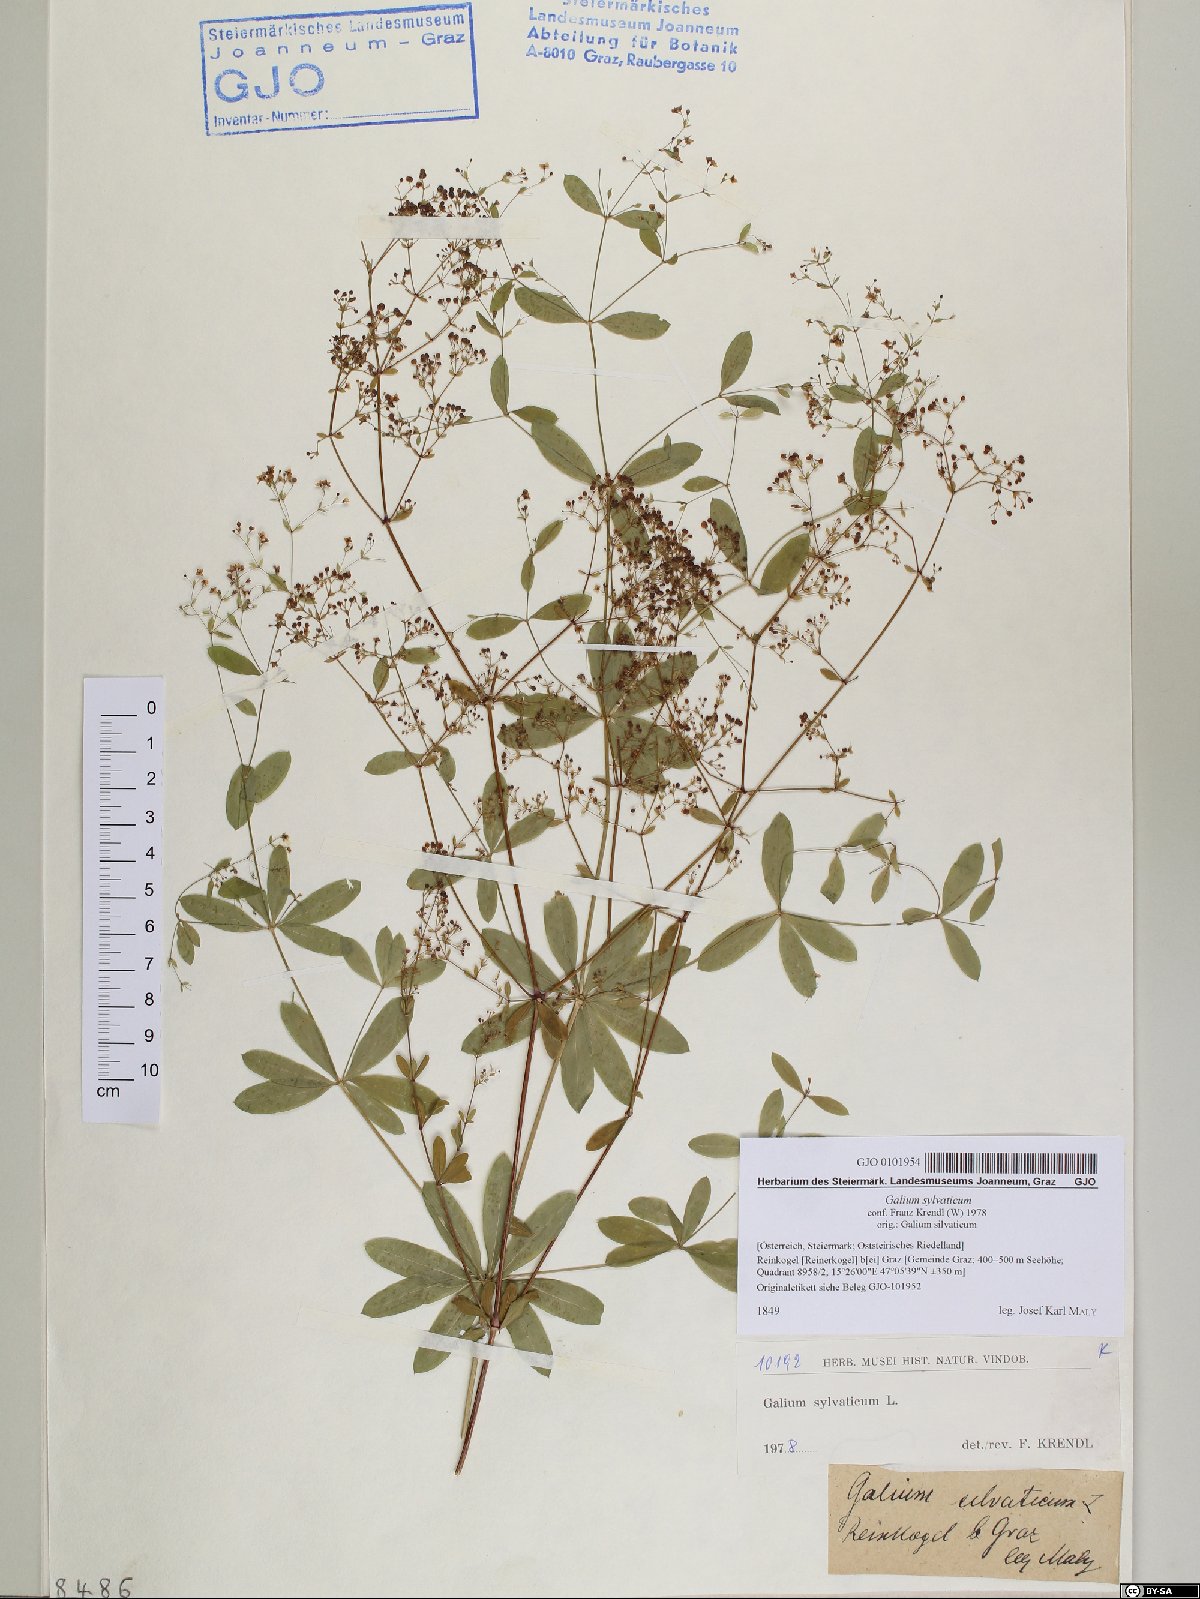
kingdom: Plantae
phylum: Tracheophyta
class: Magnoliopsida
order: Gentianales
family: Rubiaceae
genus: Galium
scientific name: Galium sylvaticum
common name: Wood bedstraw
